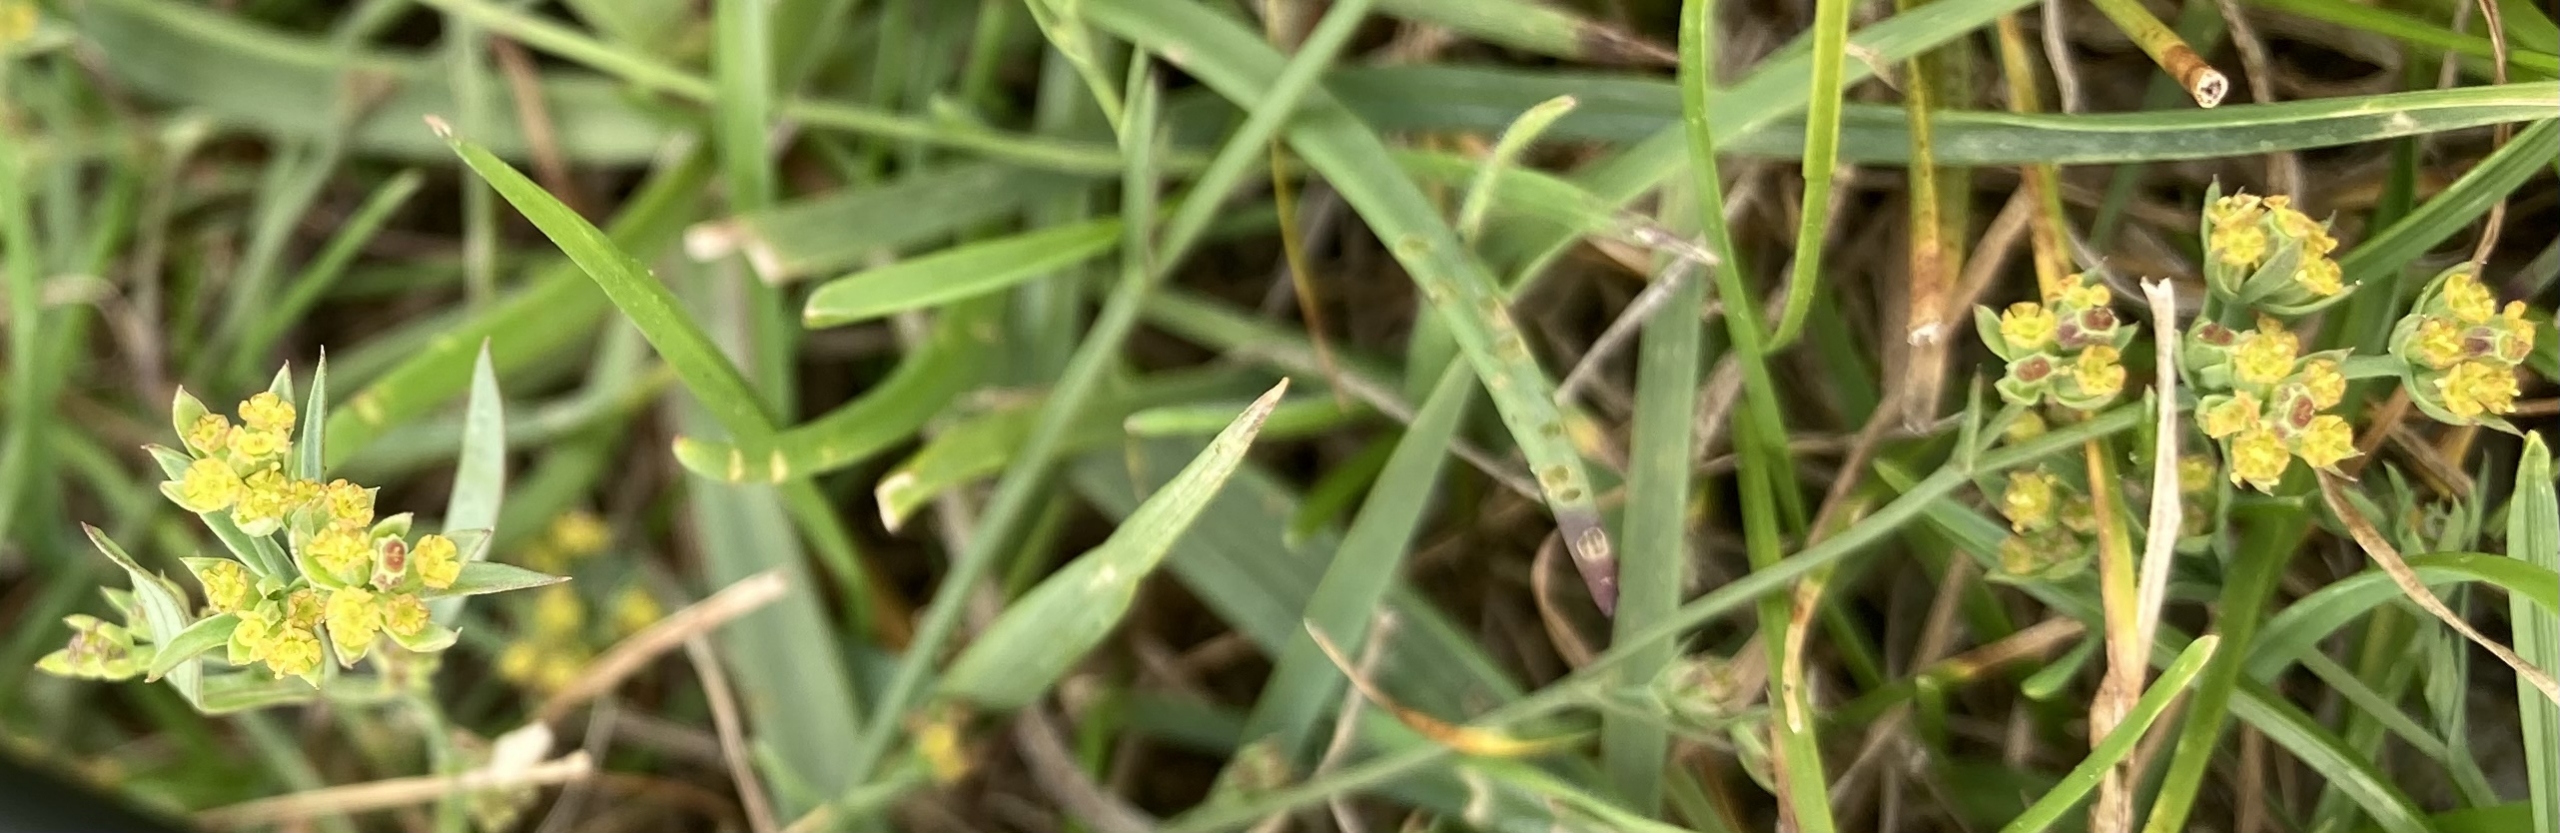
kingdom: Plantae
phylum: Tracheophyta
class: Magnoliopsida
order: Apiales
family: Apiaceae
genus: Bupleurum
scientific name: Bupleurum tenuissimum
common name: Smalbladet hareøre
